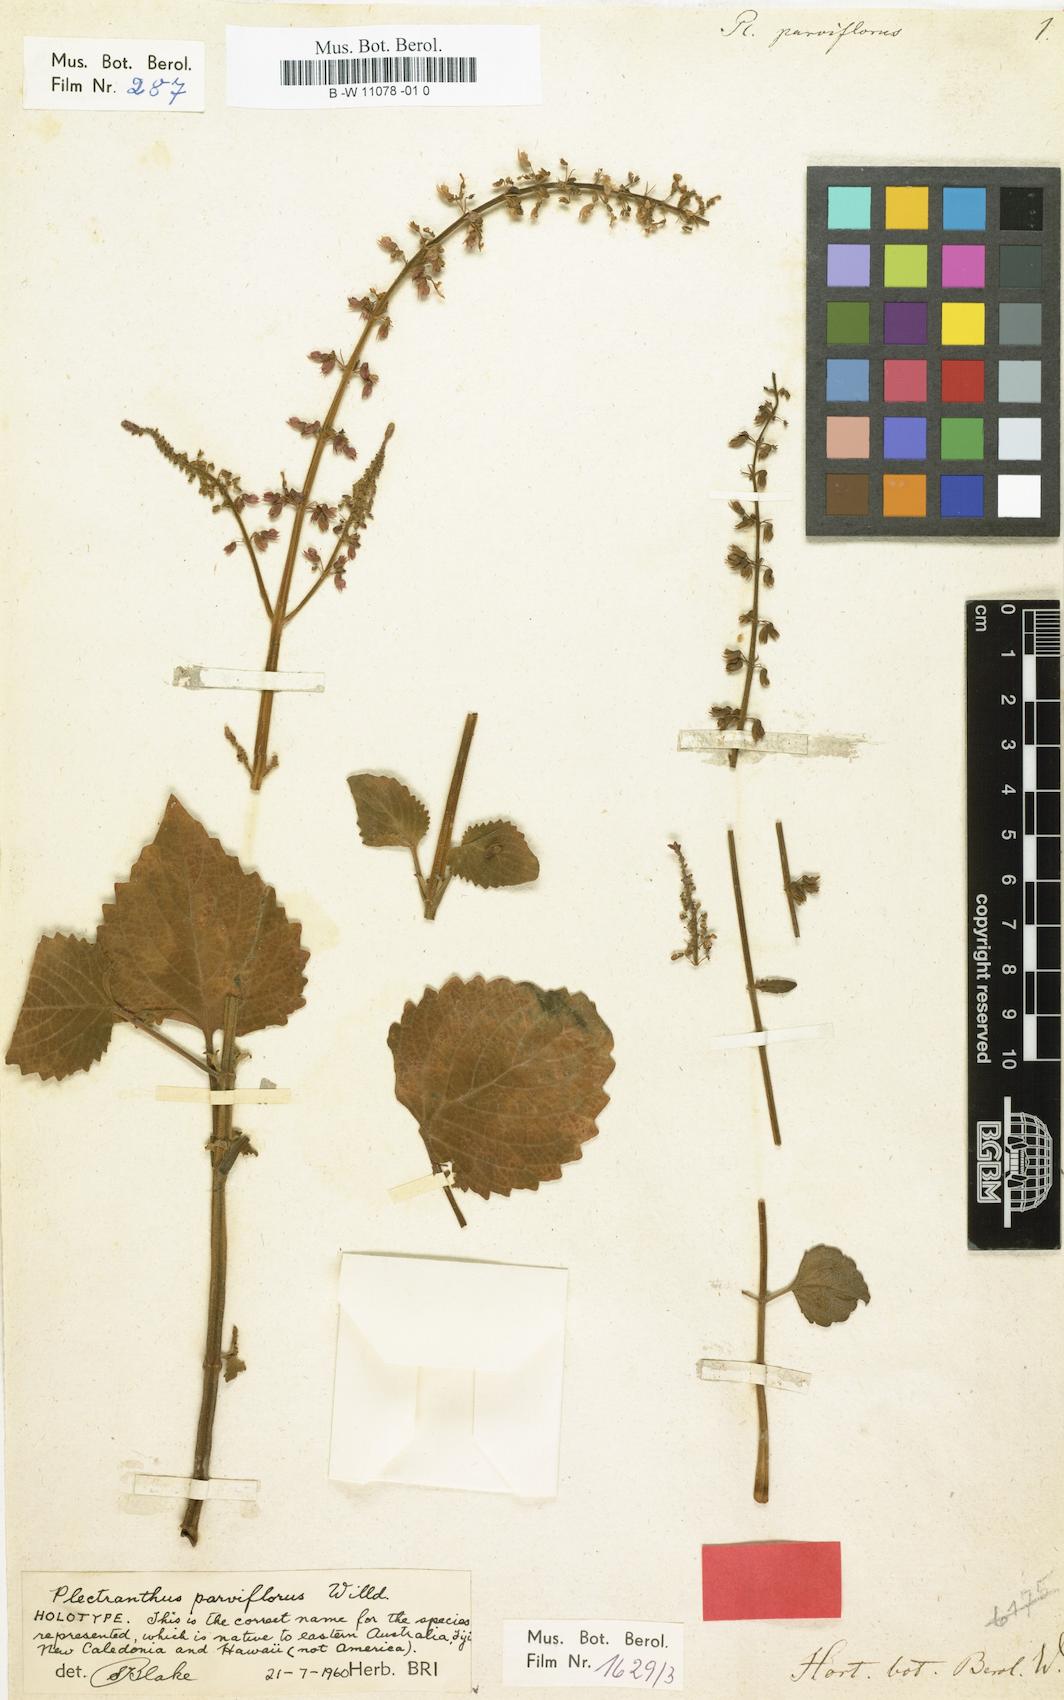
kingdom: Plantae
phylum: Tracheophyta
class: Magnoliopsida
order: Lamiales
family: Lamiaceae
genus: Plectranthus
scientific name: Plectranthus parviflorus
